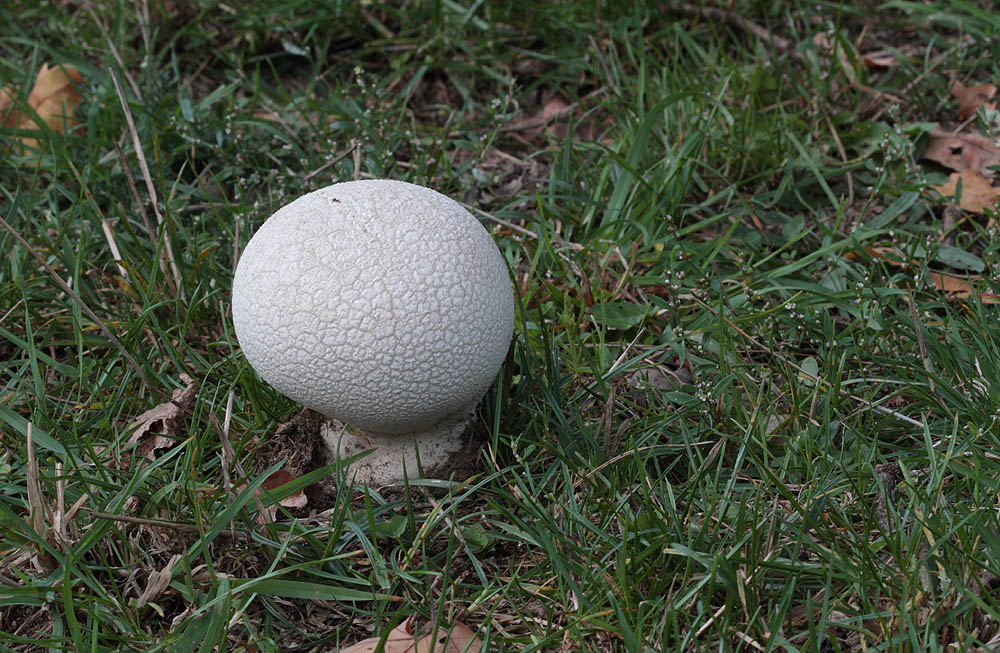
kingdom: Fungi
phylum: Basidiomycota
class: Agaricomycetes
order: Agaricales
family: Lycoperdaceae
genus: Bovistella
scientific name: Bovistella utriformis
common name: skællet støvbold
